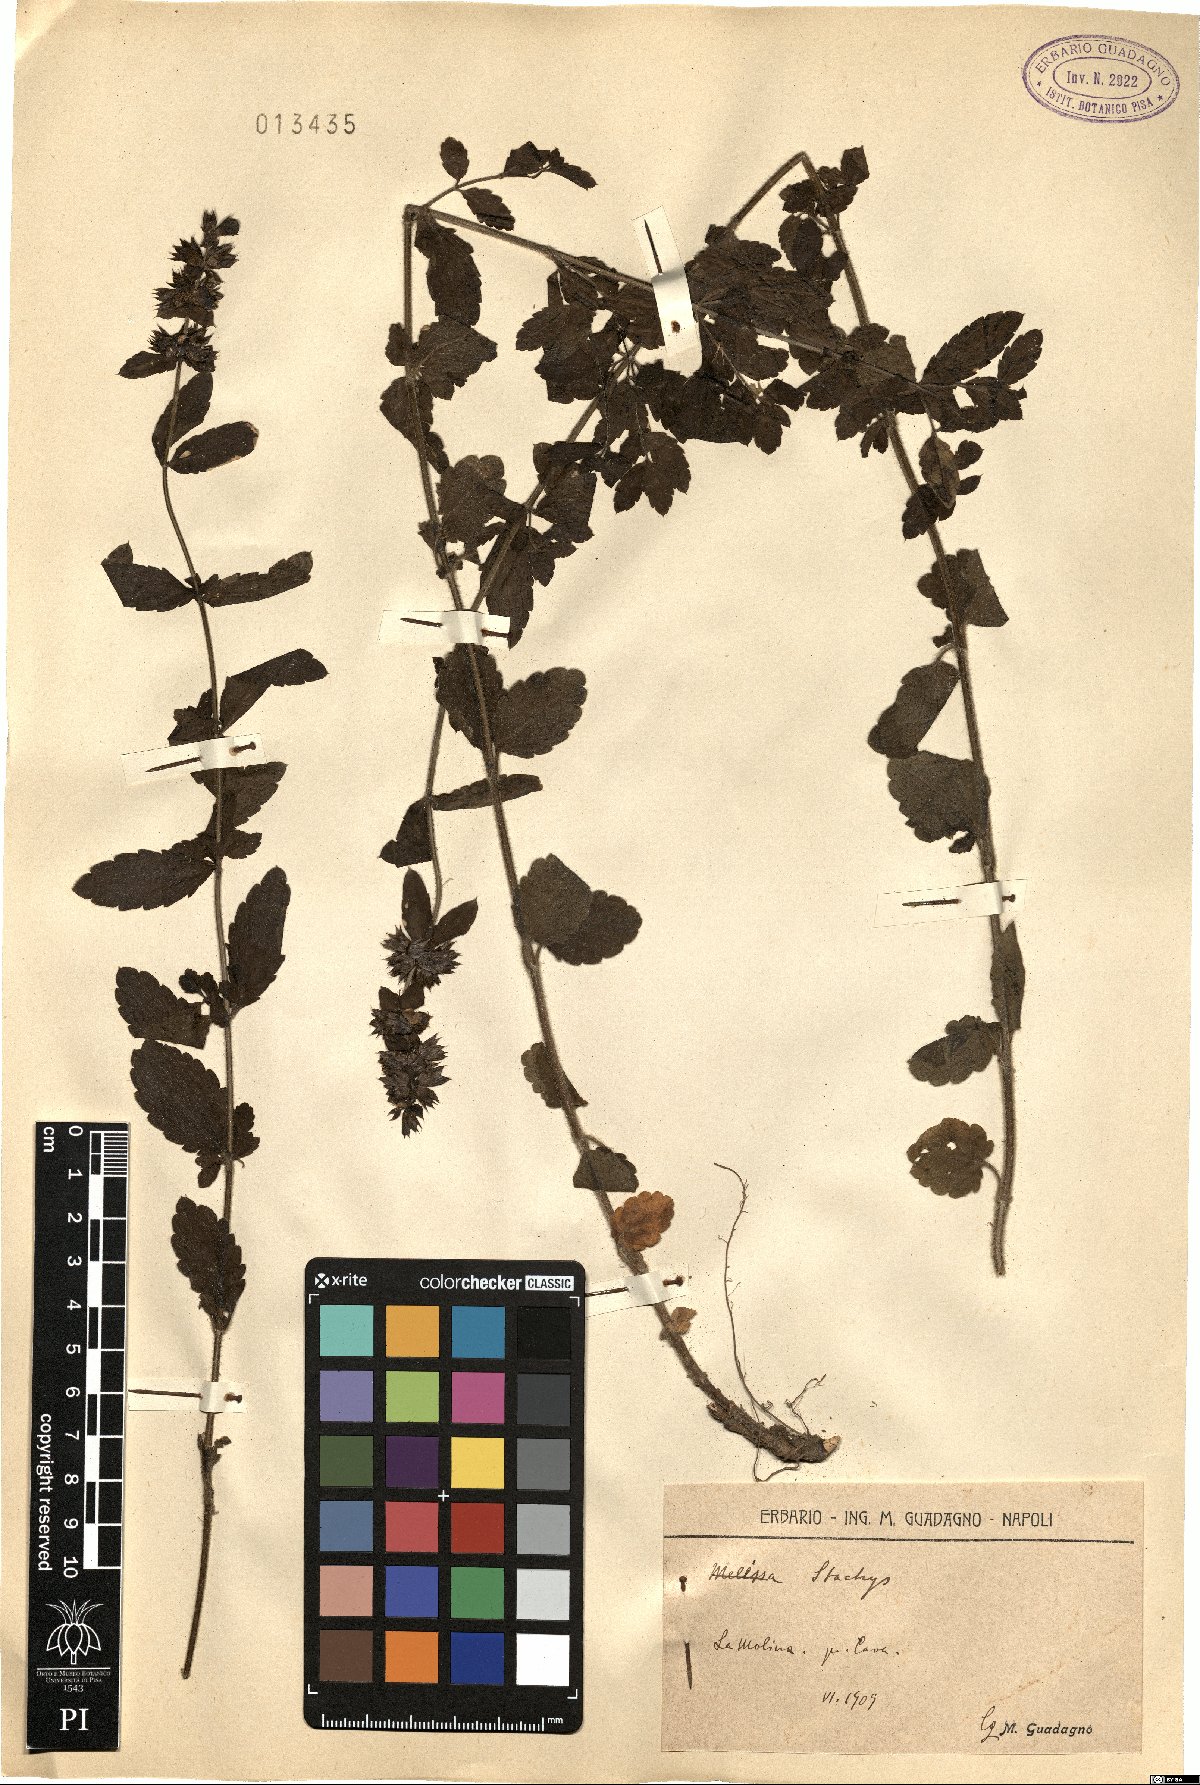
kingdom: Plantae
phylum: Tracheophyta
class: Magnoliopsida
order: Lamiales
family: Lamiaceae
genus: Stachys
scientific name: Stachys
